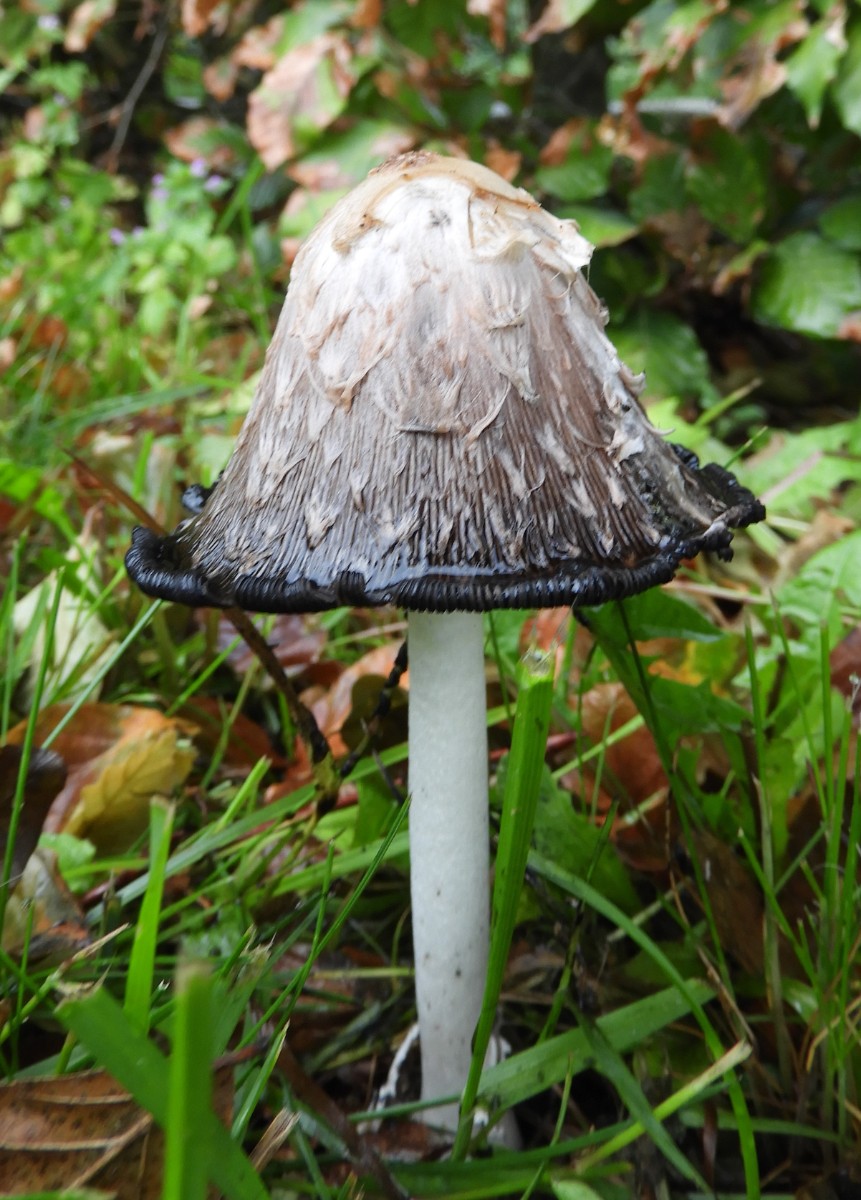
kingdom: Fungi
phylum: Basidiomycota
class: Agaricomycetes
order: Agaricales
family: Agaricaceae
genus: Coprinus
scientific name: Coprinus comatus
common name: stor parykhat
